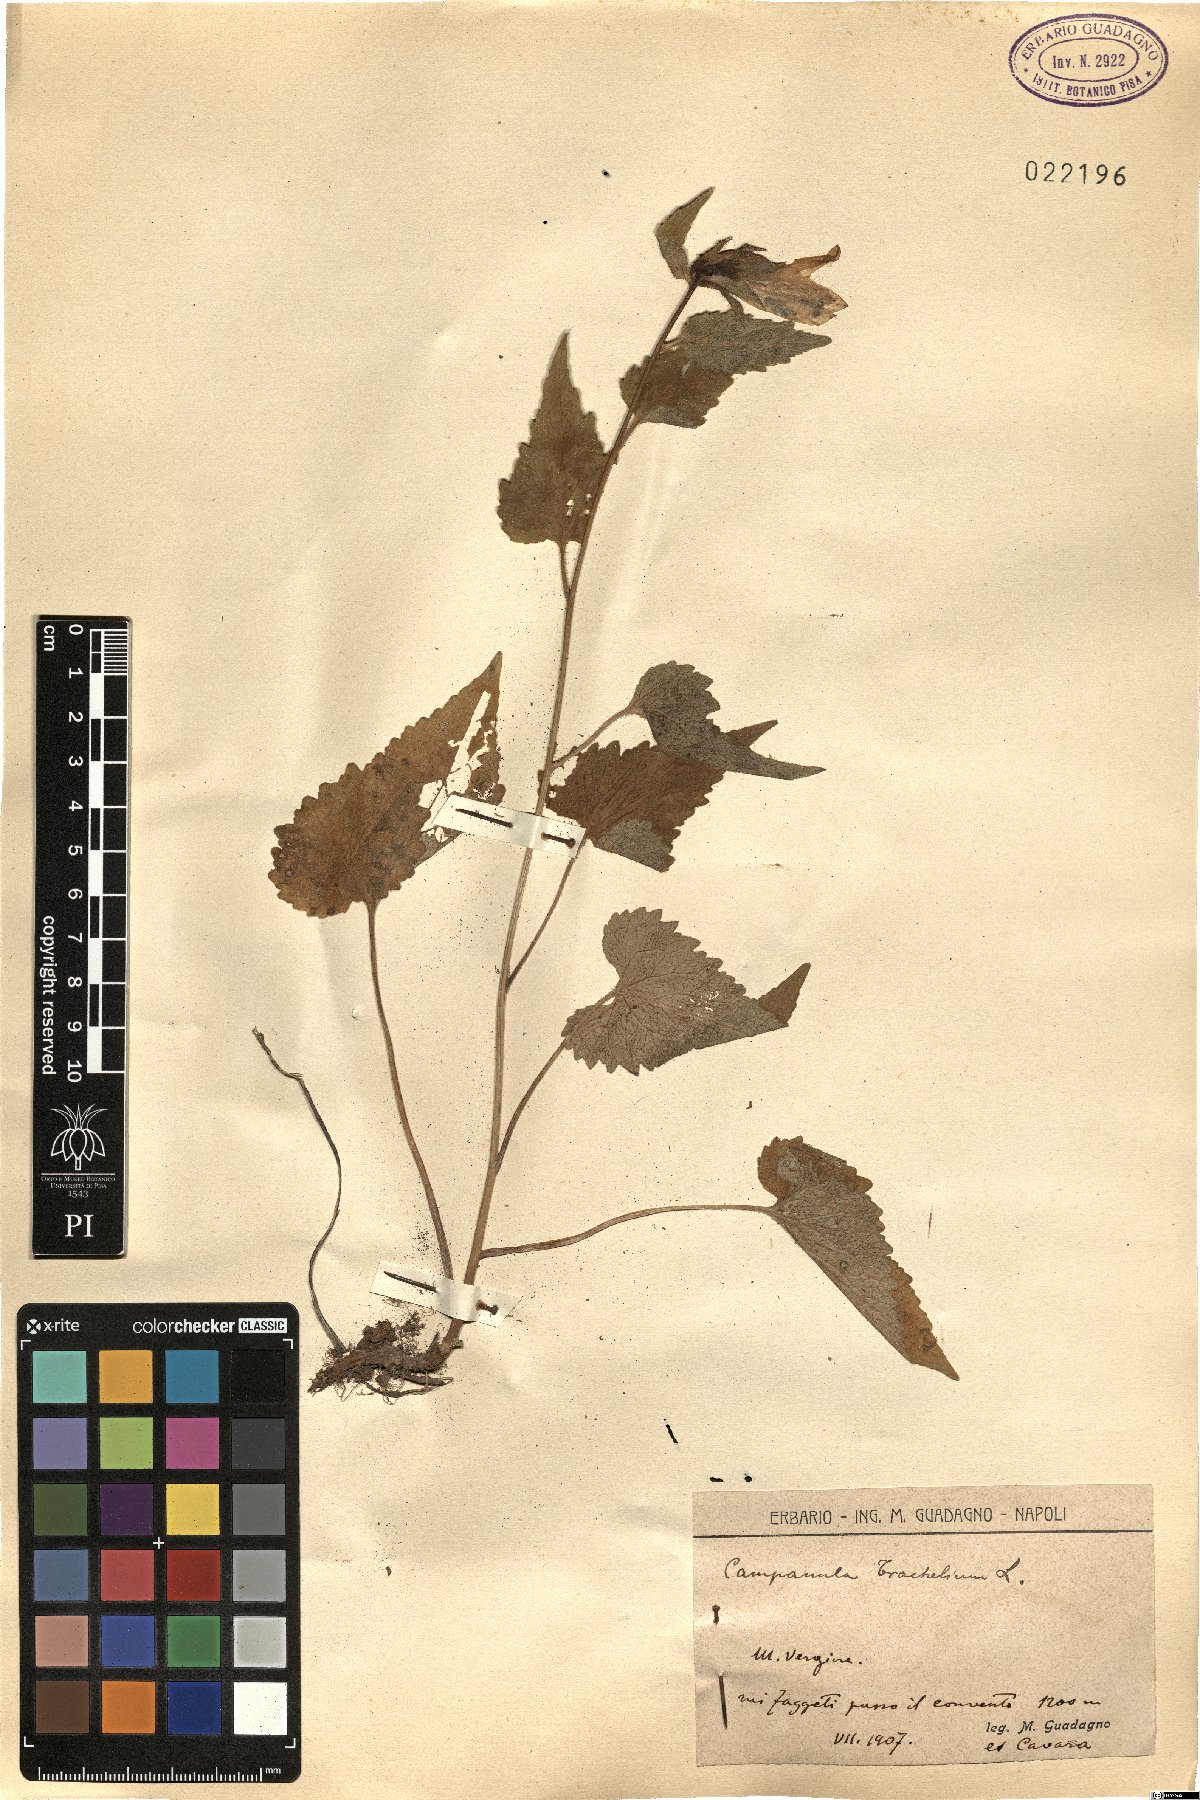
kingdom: Plantae
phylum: Tracheophyta
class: Magnoliopsida
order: Asterales
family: Campanulaceae
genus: Campanula
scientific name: Campanula trachelium
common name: Nettle-leaved bellflower
